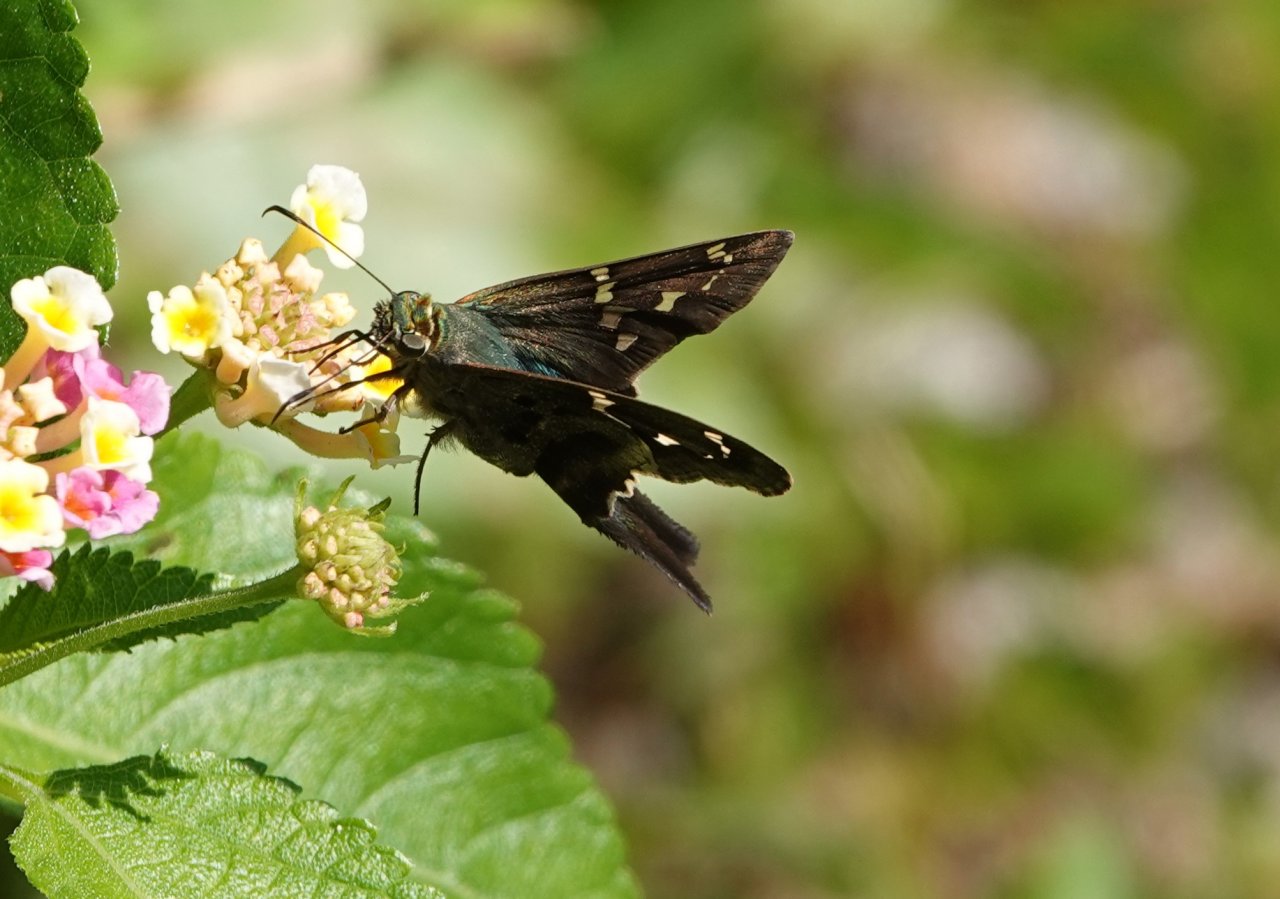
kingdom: Animalia
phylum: Arthropoda
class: Insecta
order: Lepidoptera
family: Hesperiidae
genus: Urbanus
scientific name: Urbanus proteus
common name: Long-tailed Skipper
